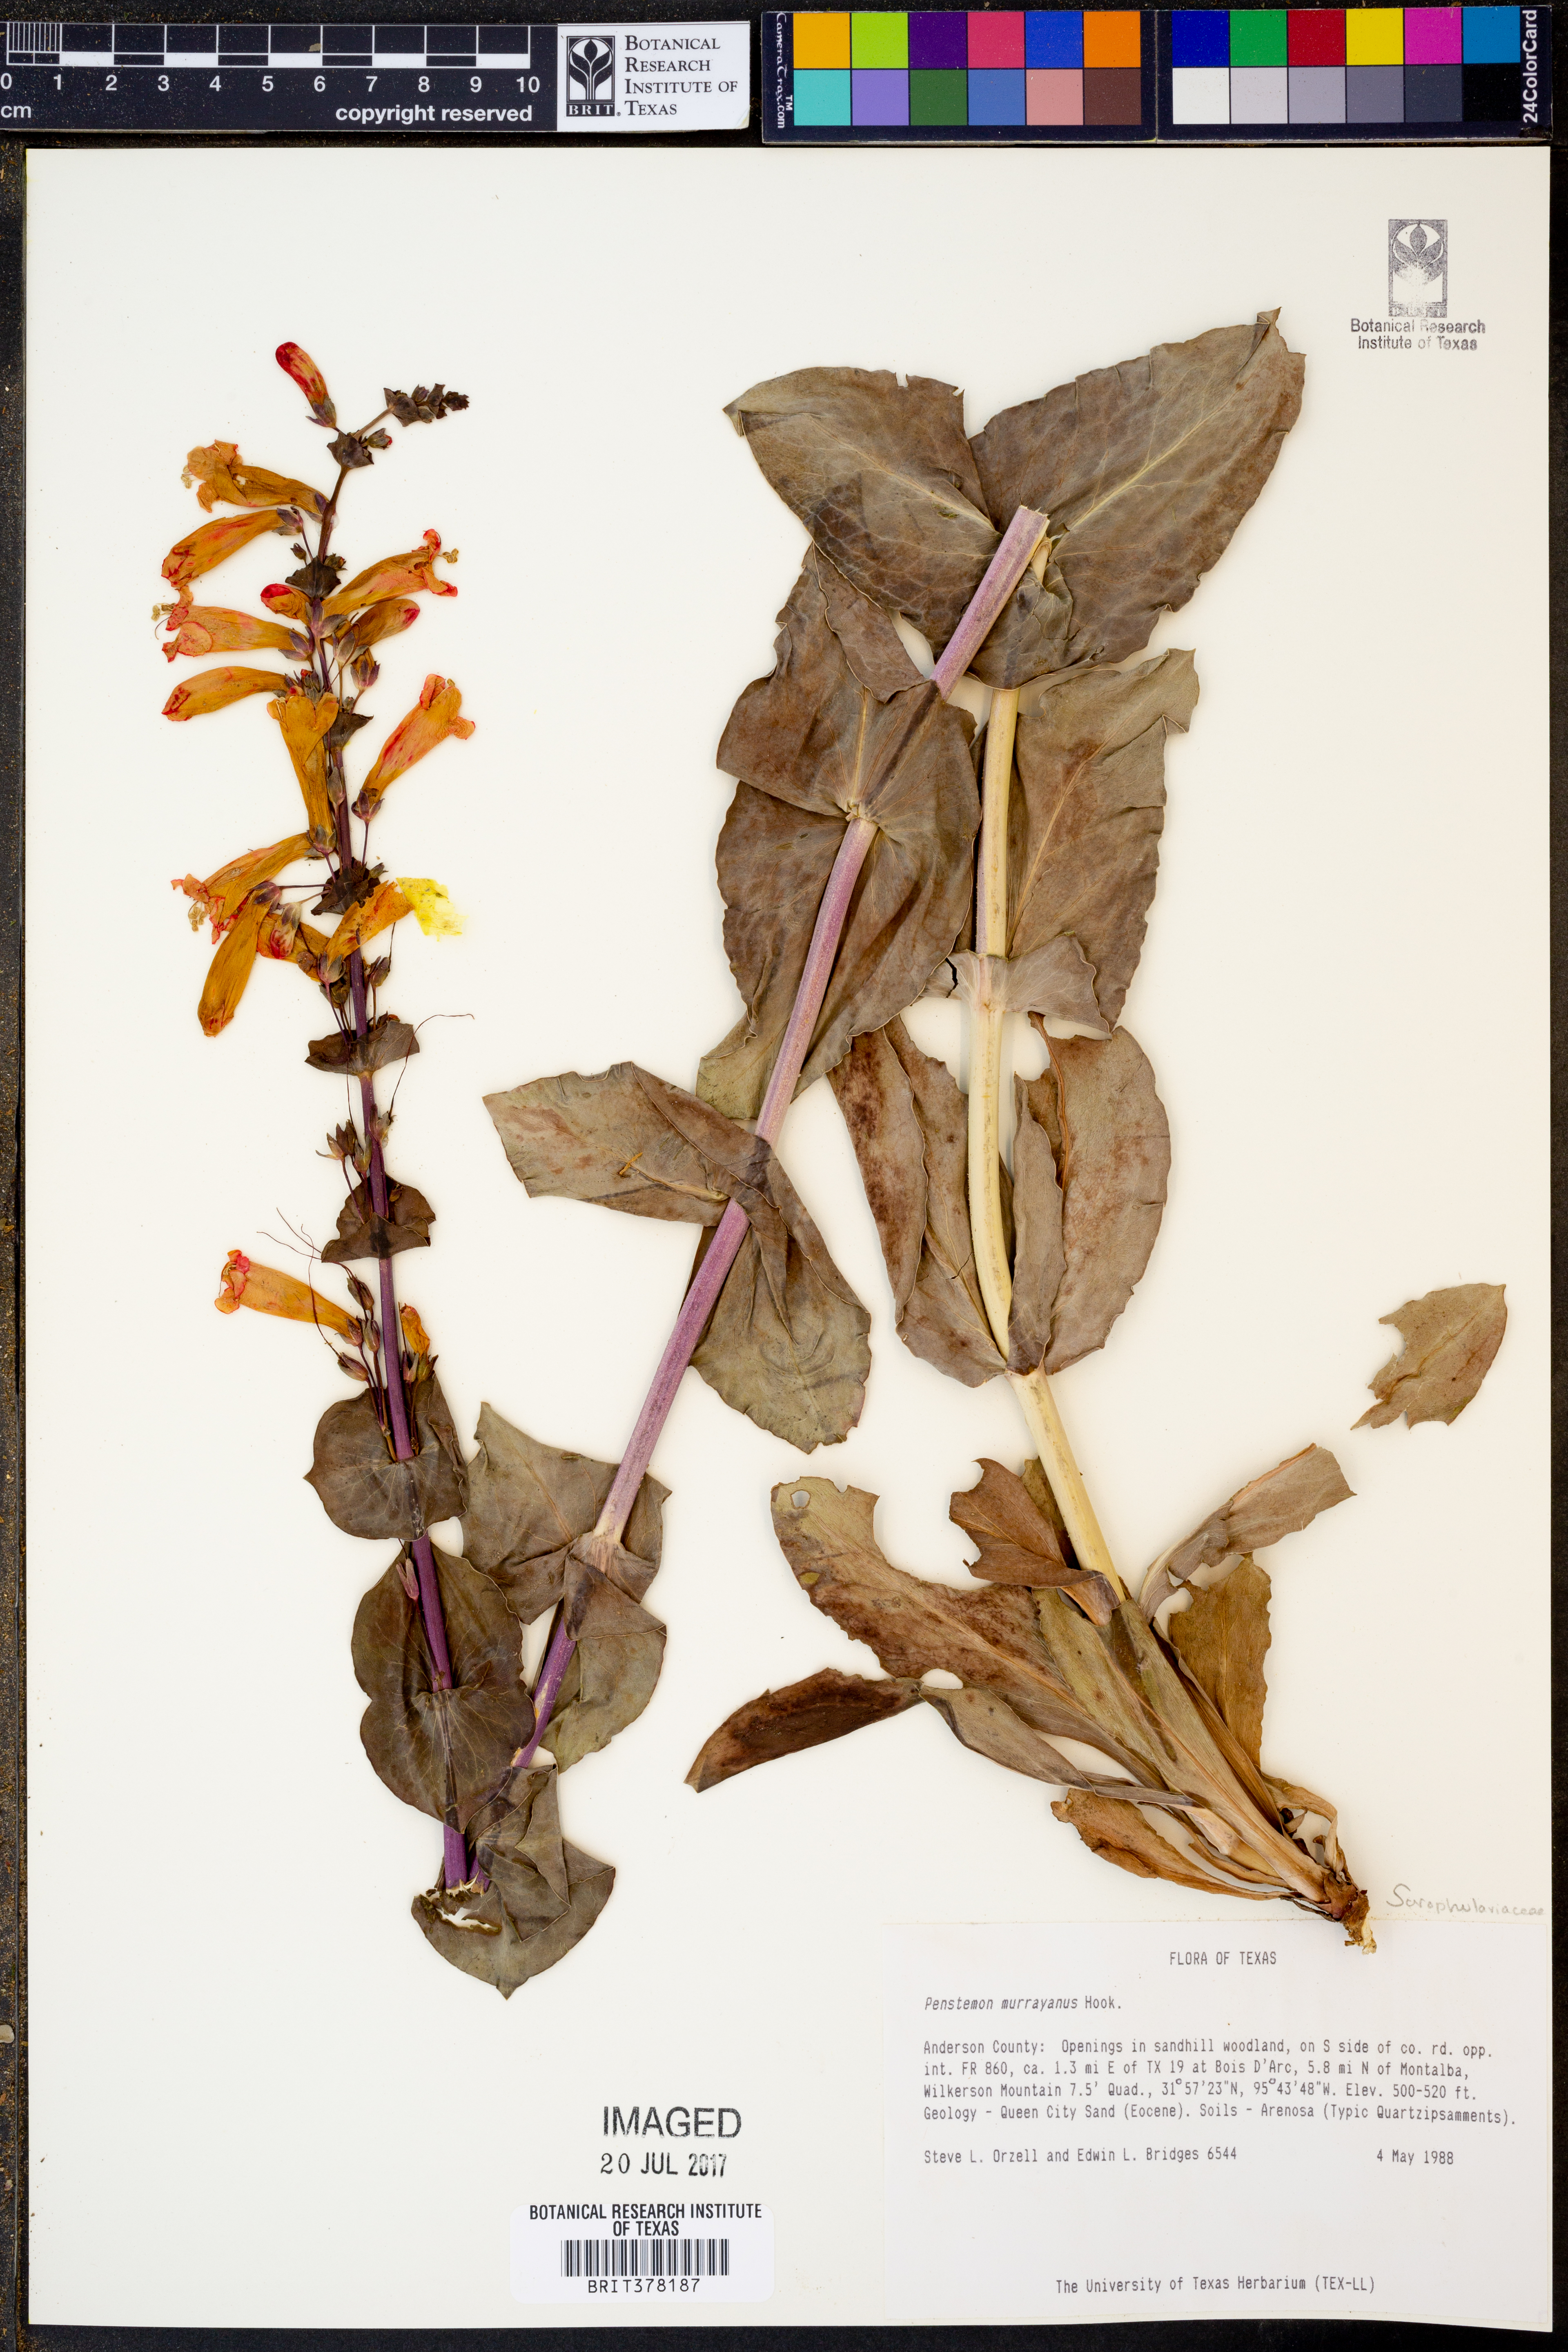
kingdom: Plantae
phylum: Tracheophyta
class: Magnoliopsida
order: Lamiales
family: Plantaginaceae
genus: Penstemon
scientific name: Penstemon murrayanus
